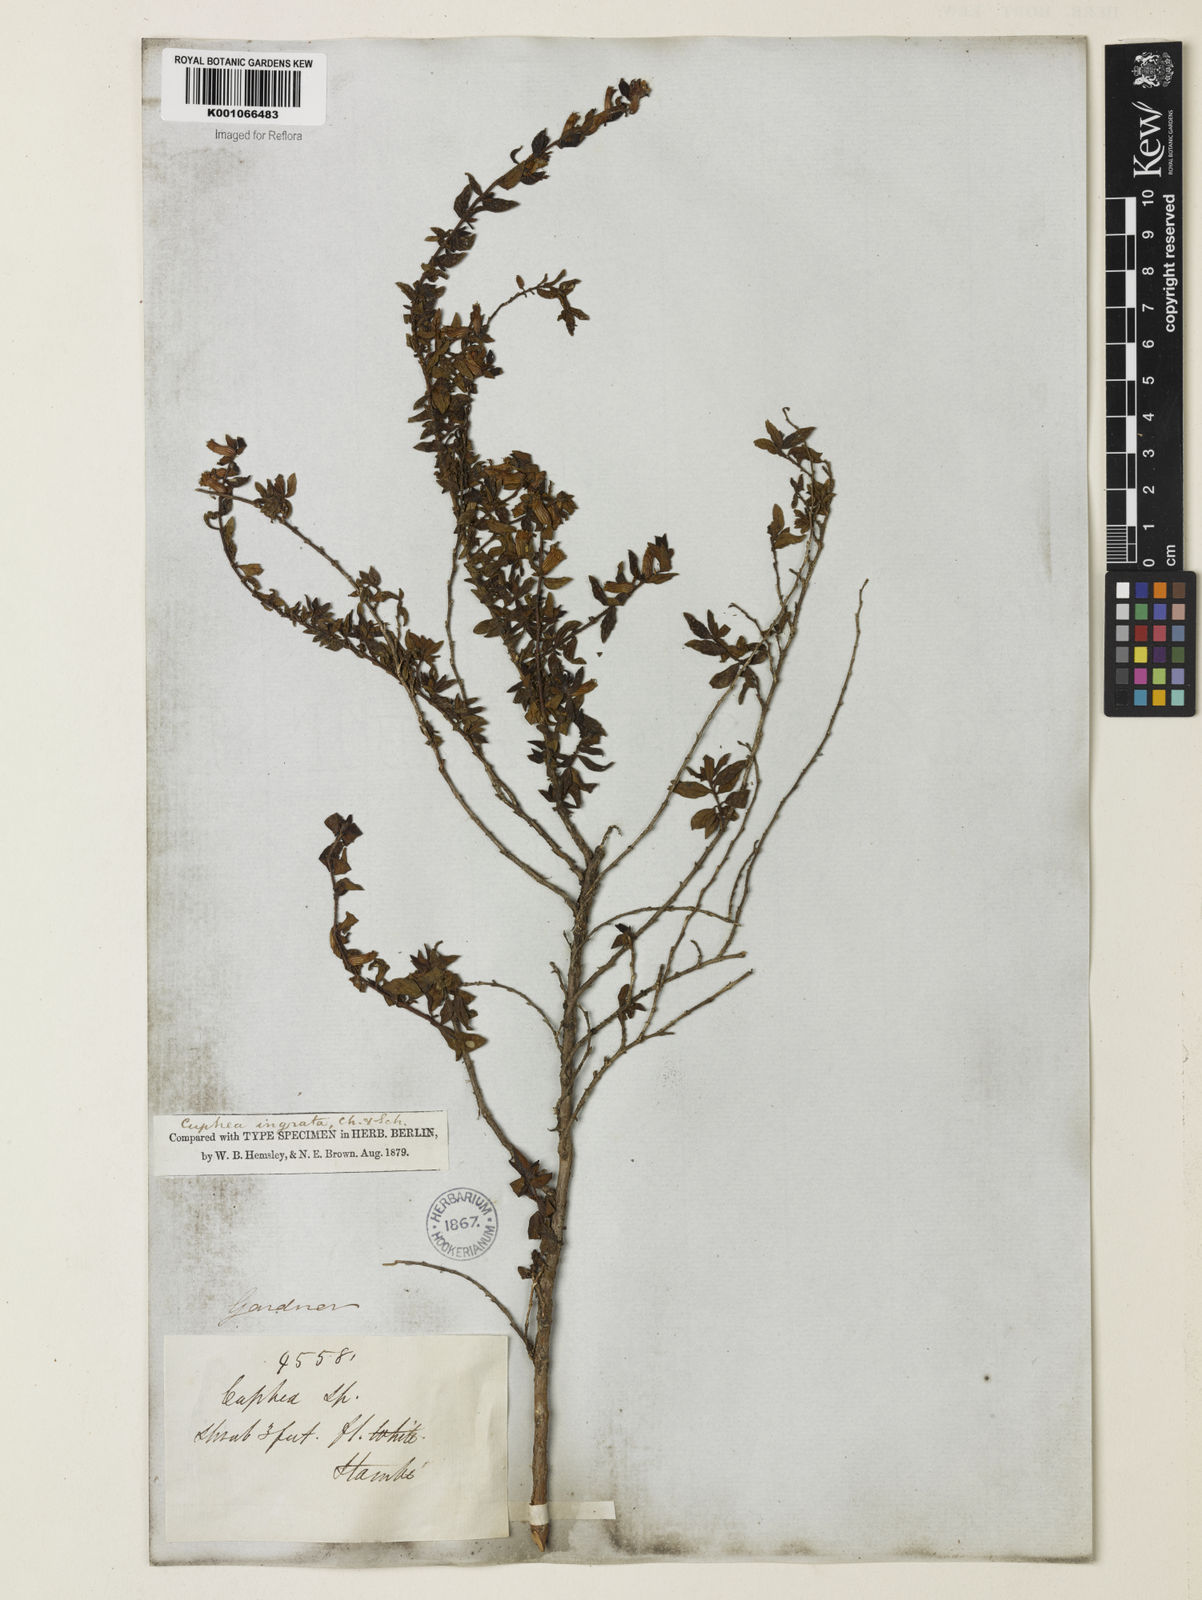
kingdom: Plantae
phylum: Tracheophyta
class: Magnoliopsida
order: Myrtales
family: Lythraceae
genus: Cuphea
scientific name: Cuphea ingrata
